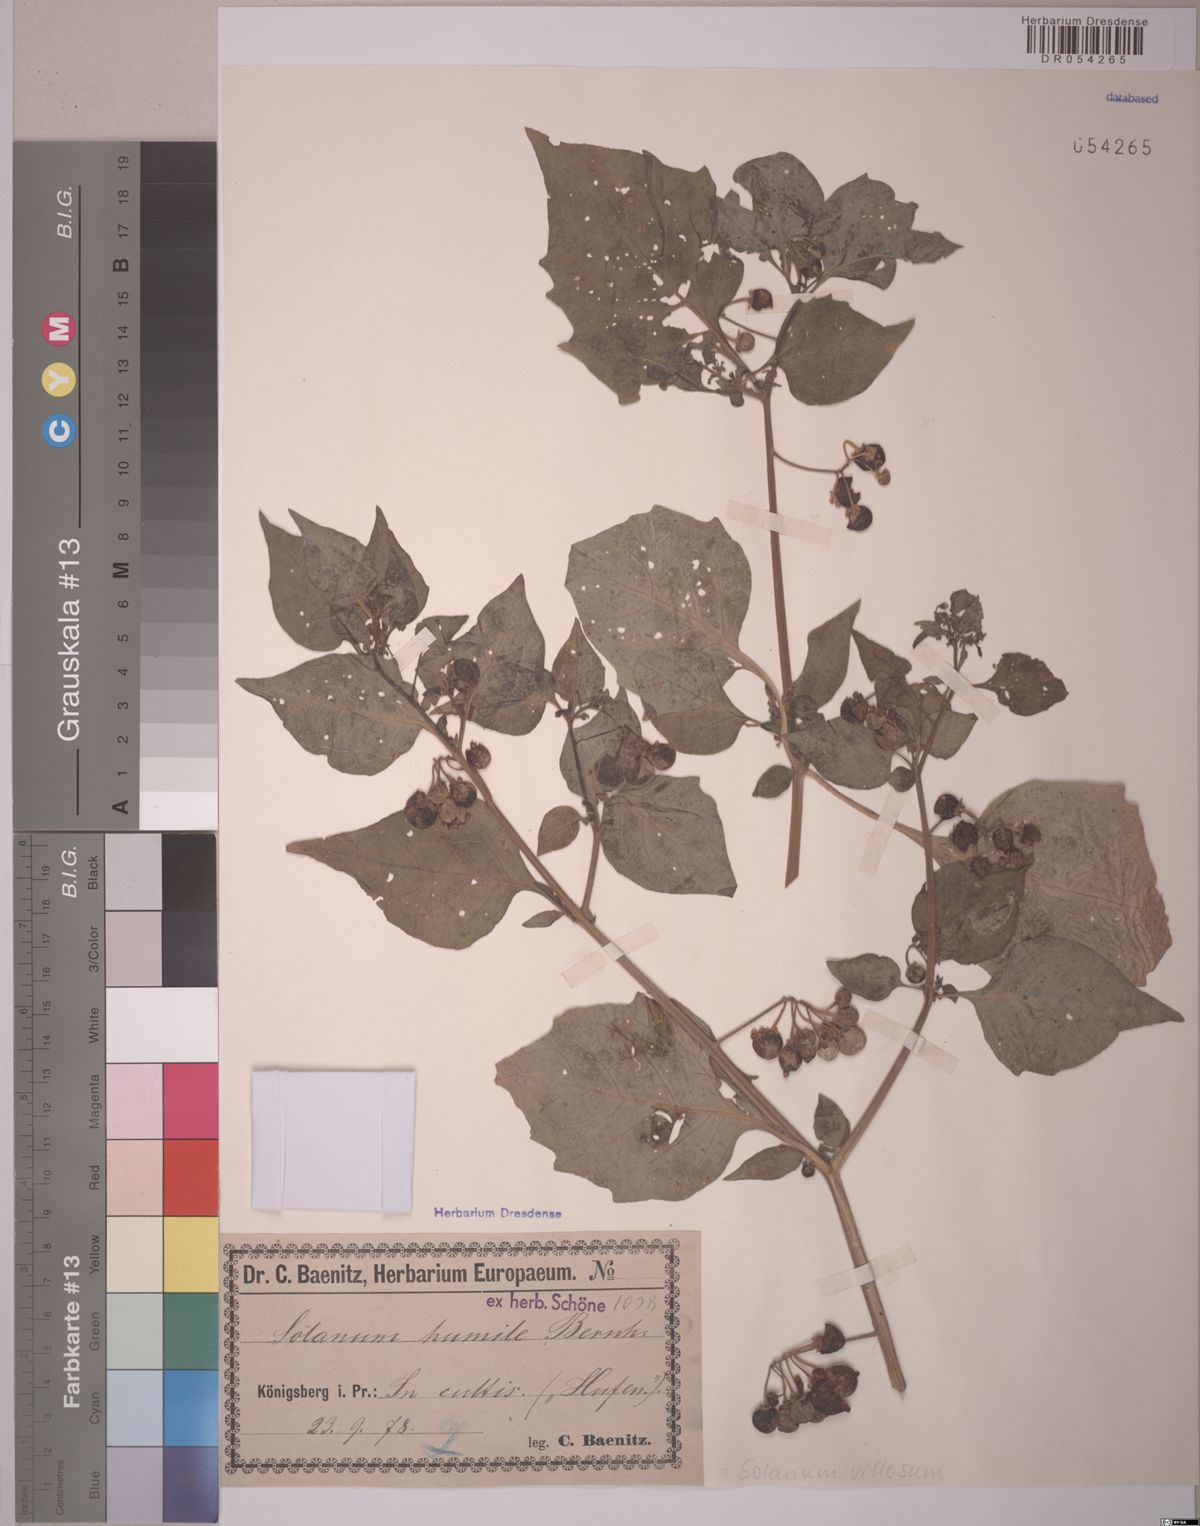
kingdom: Plantae
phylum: Tracheophyta
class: Magnoliopsida
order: Solanales
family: Solanaceae
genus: Solanum
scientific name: Solanum villosum
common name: Red nightshade
